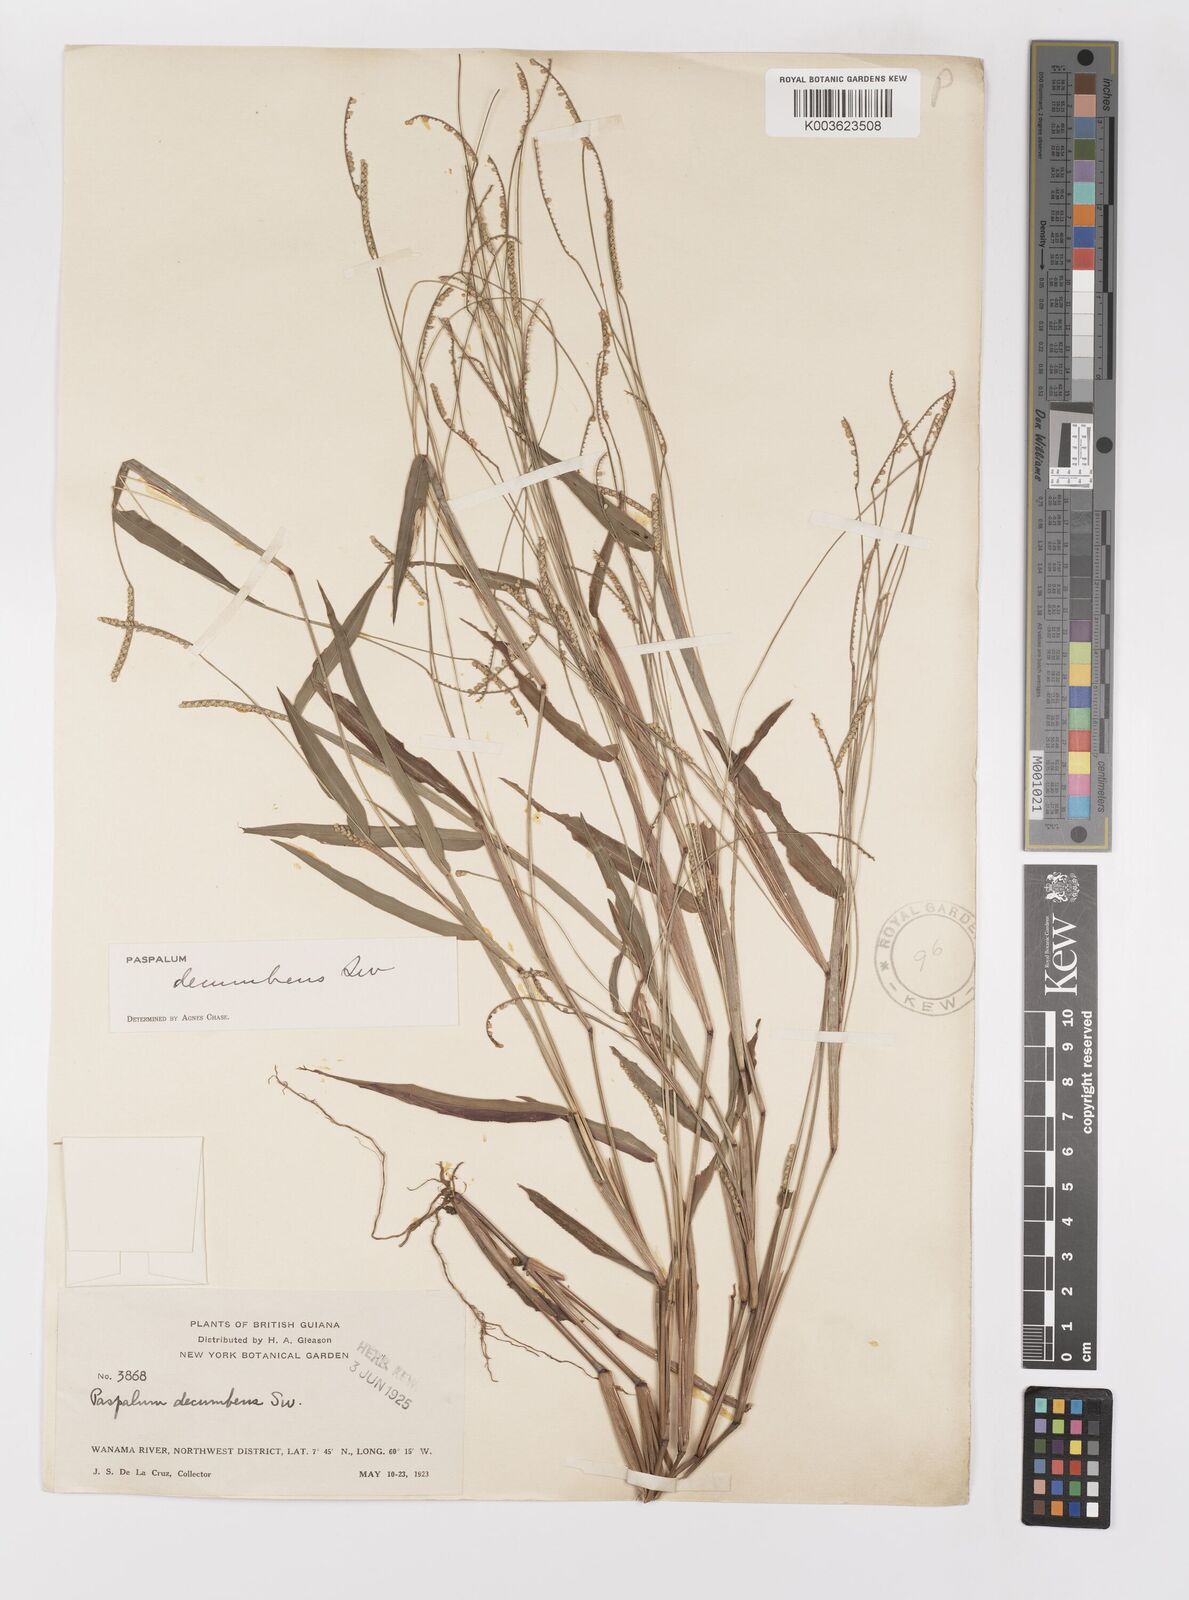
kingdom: Plantae
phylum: Tracheophyta
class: Liliopsida
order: Poales
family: Poaceae
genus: Paspalum
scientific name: Paspalum decumbens
